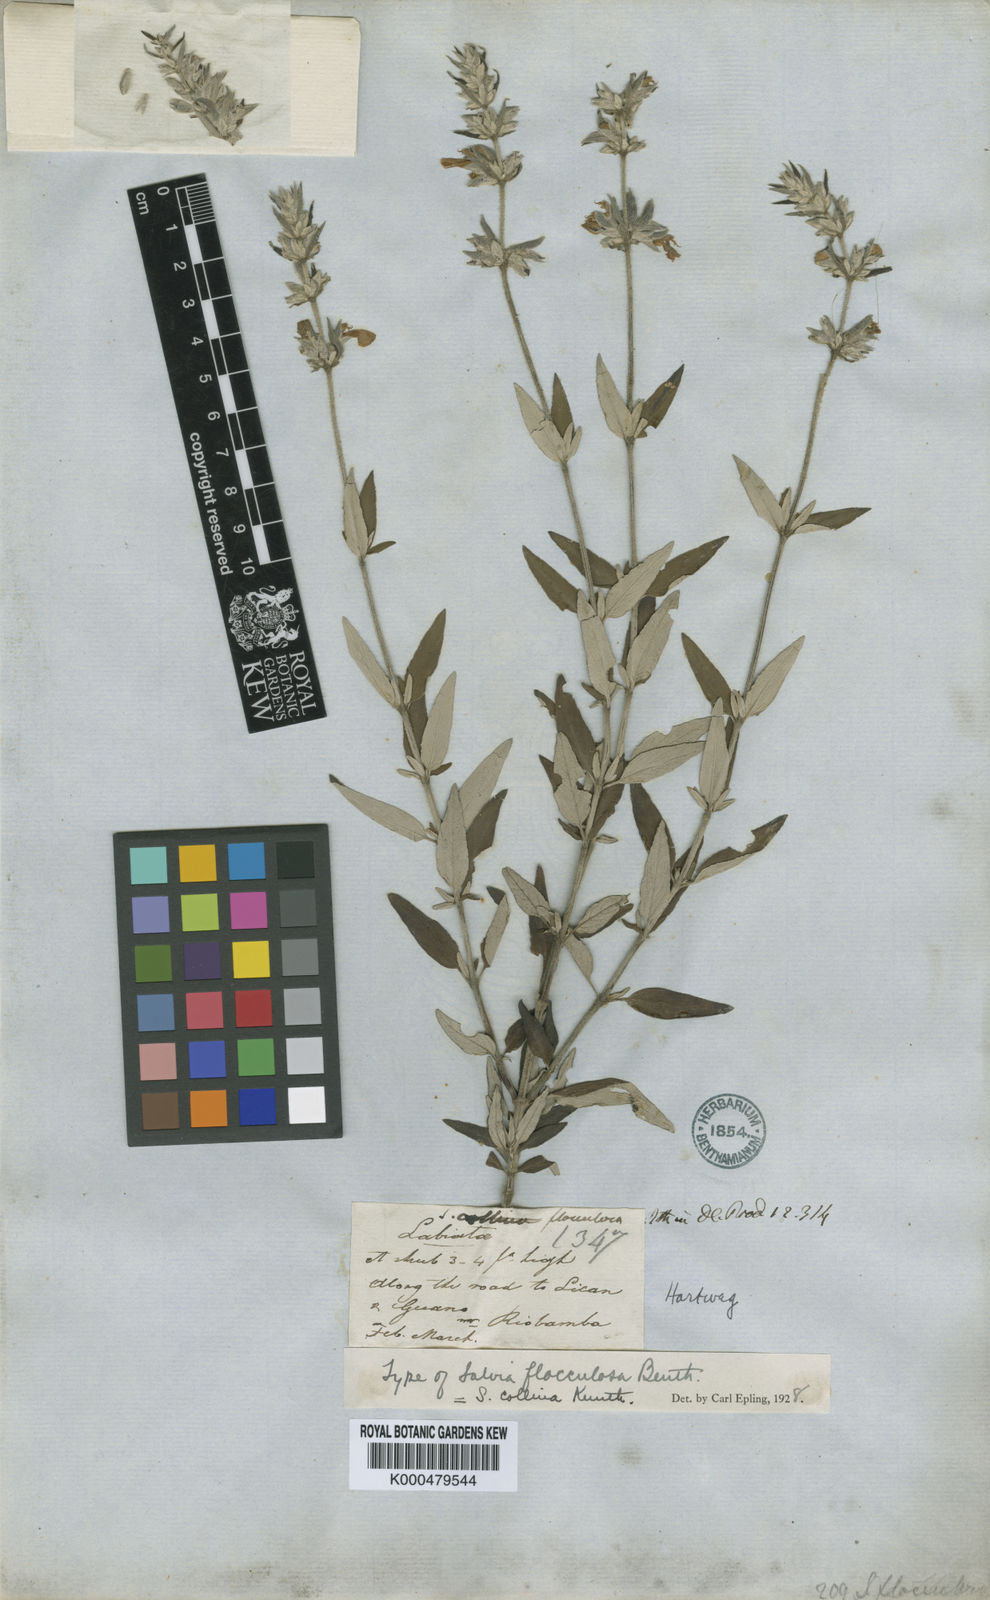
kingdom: Plantae
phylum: Tracheophyta
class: Magnoliopsida
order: Lamiales
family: Lamiaceae
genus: Salvia
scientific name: Salvia flocculosa
